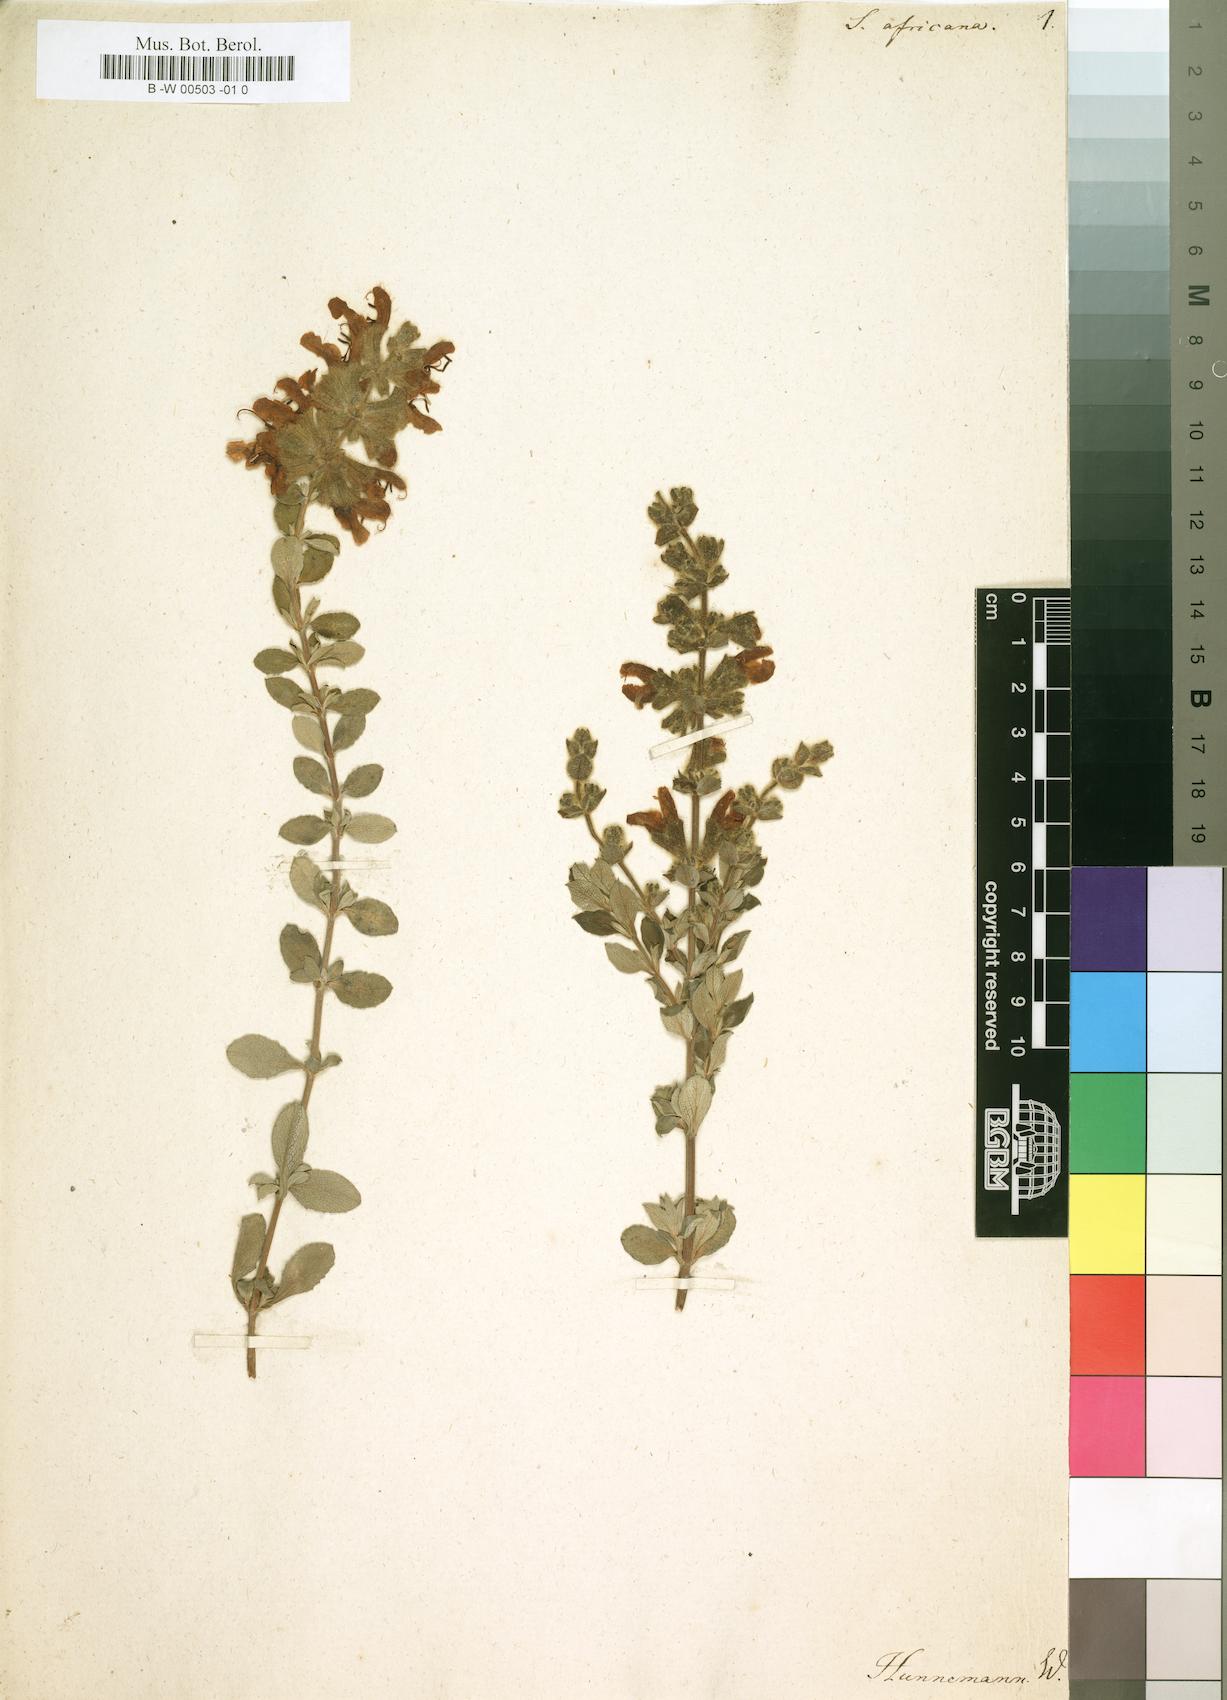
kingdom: Plantae
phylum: Tracheophyta
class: Magnoliopsida
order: Lamiales
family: Lamiaceae
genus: Salvia
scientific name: Salvia africana
